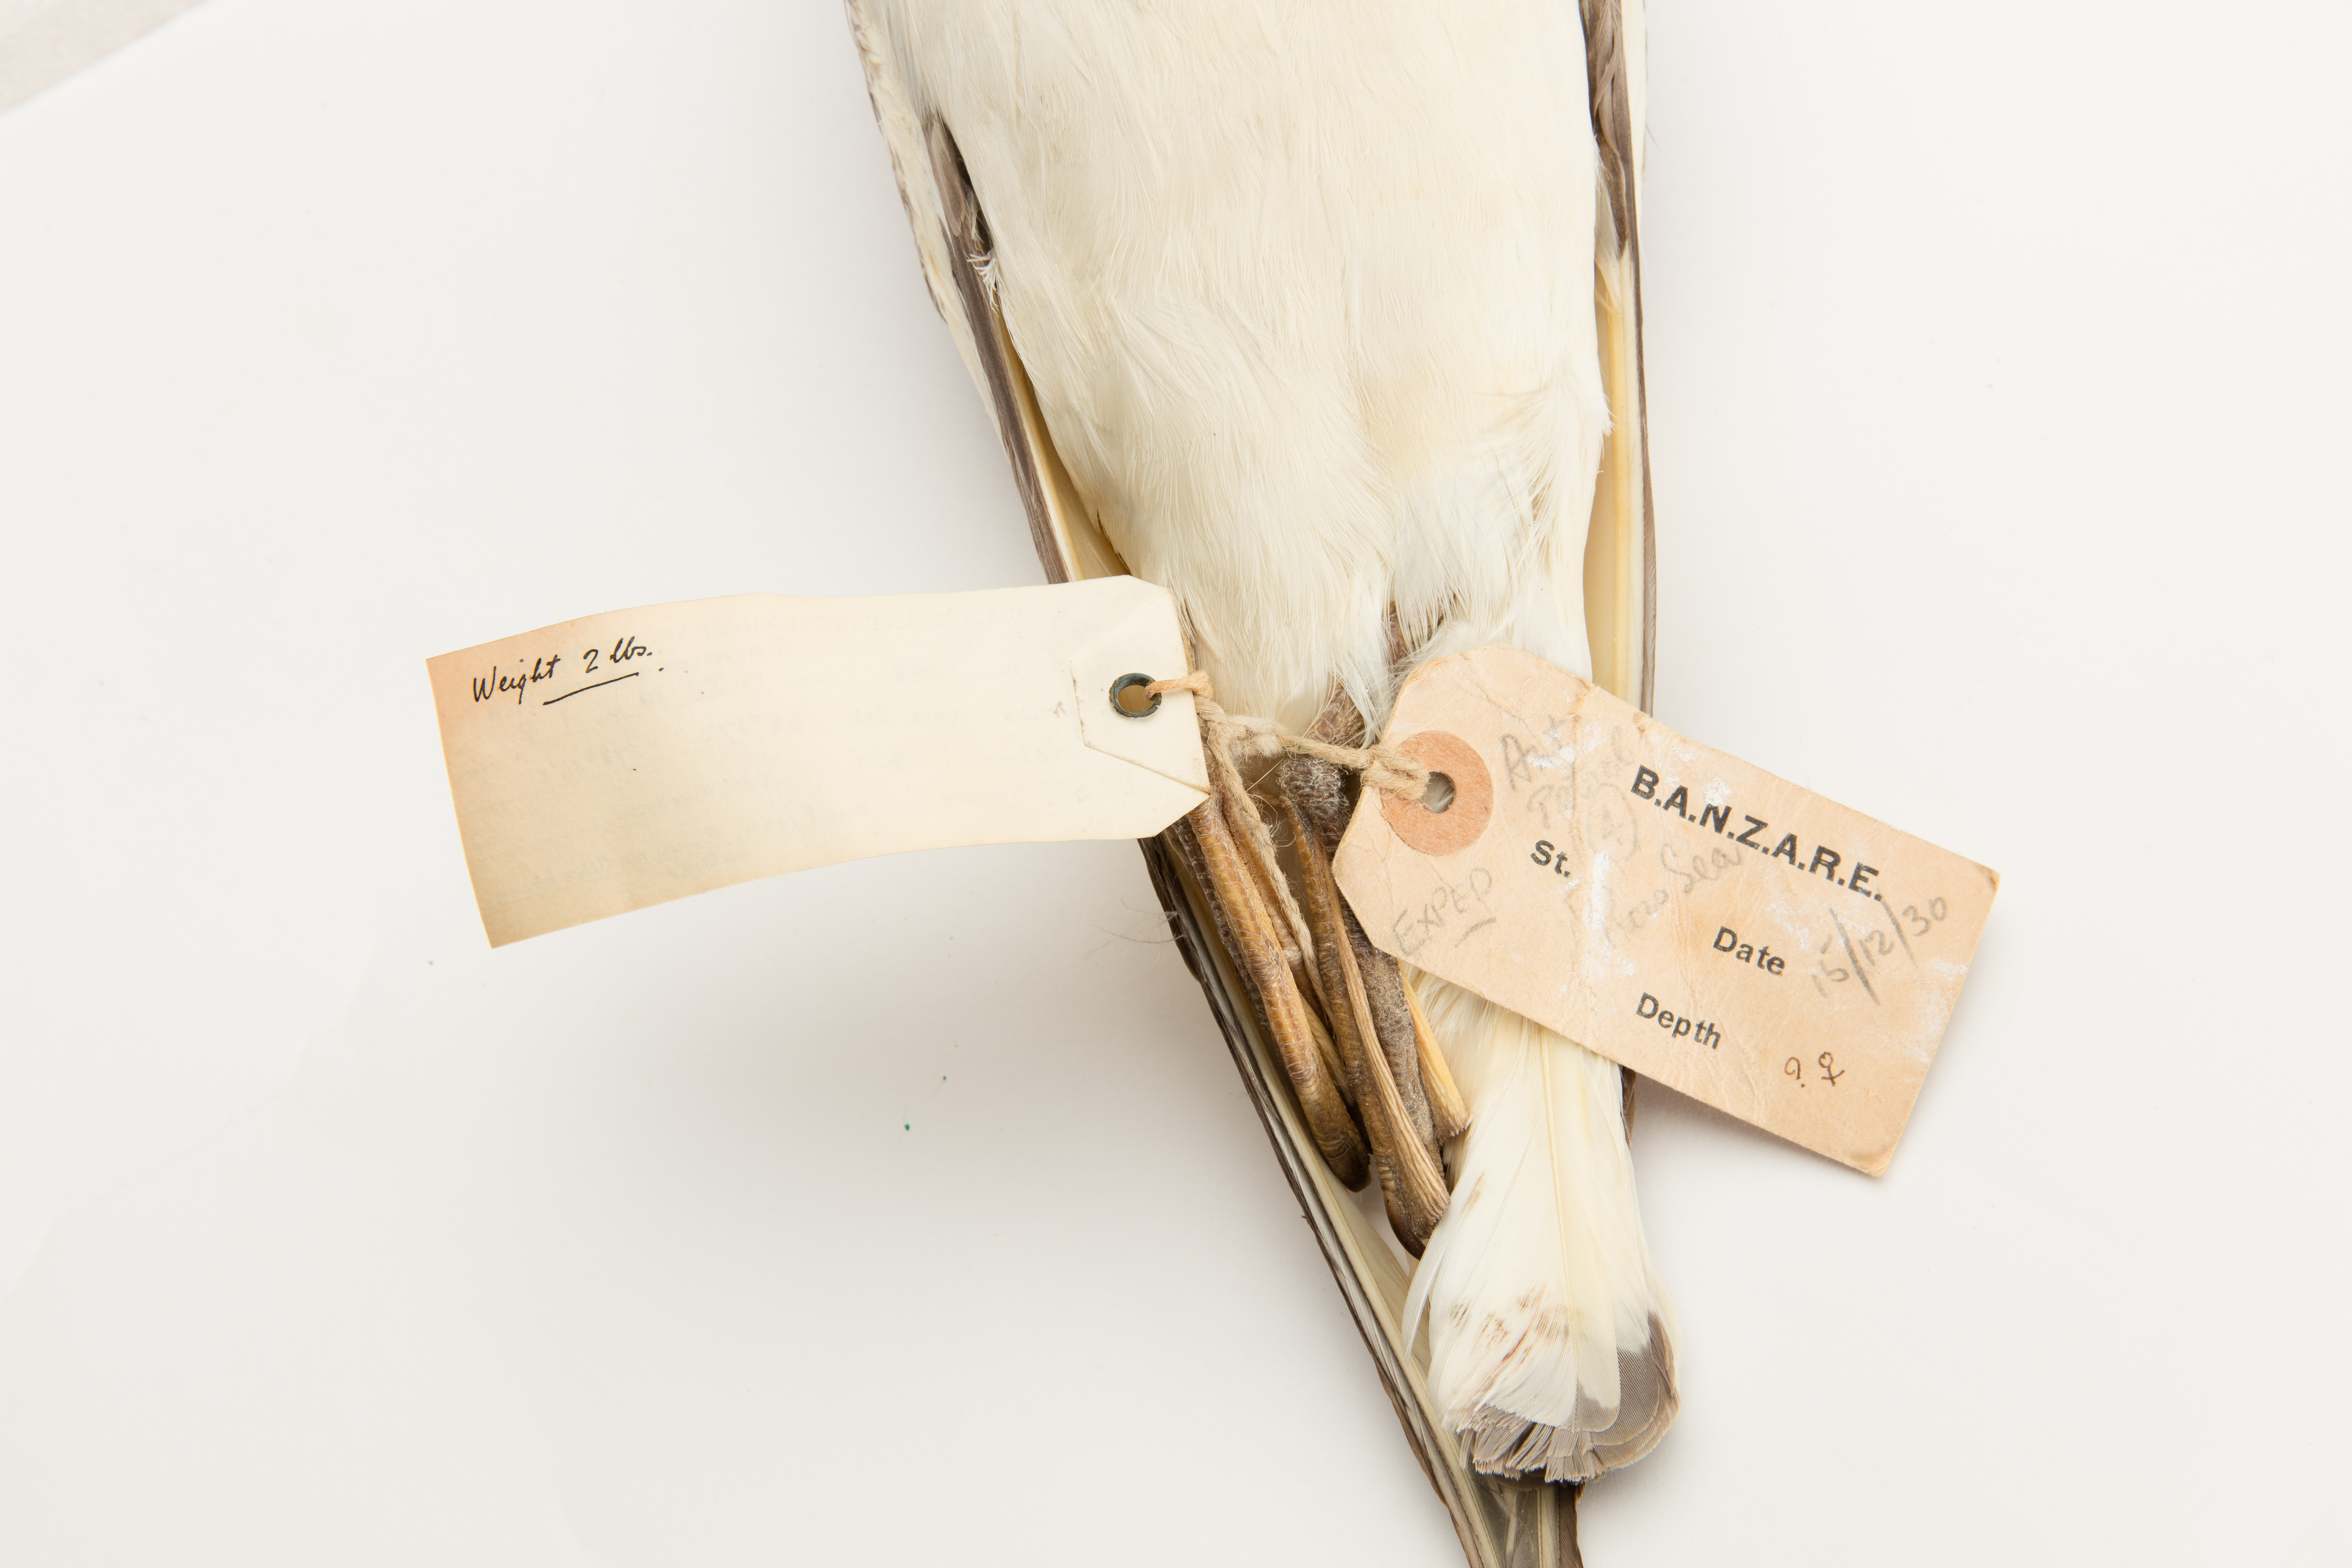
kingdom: Animalia
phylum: Chordata
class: Aves
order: Procellariiformes
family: Procellariidae
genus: Thalassoica
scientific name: Thalassoica antarctica
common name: Antarctic petrel
